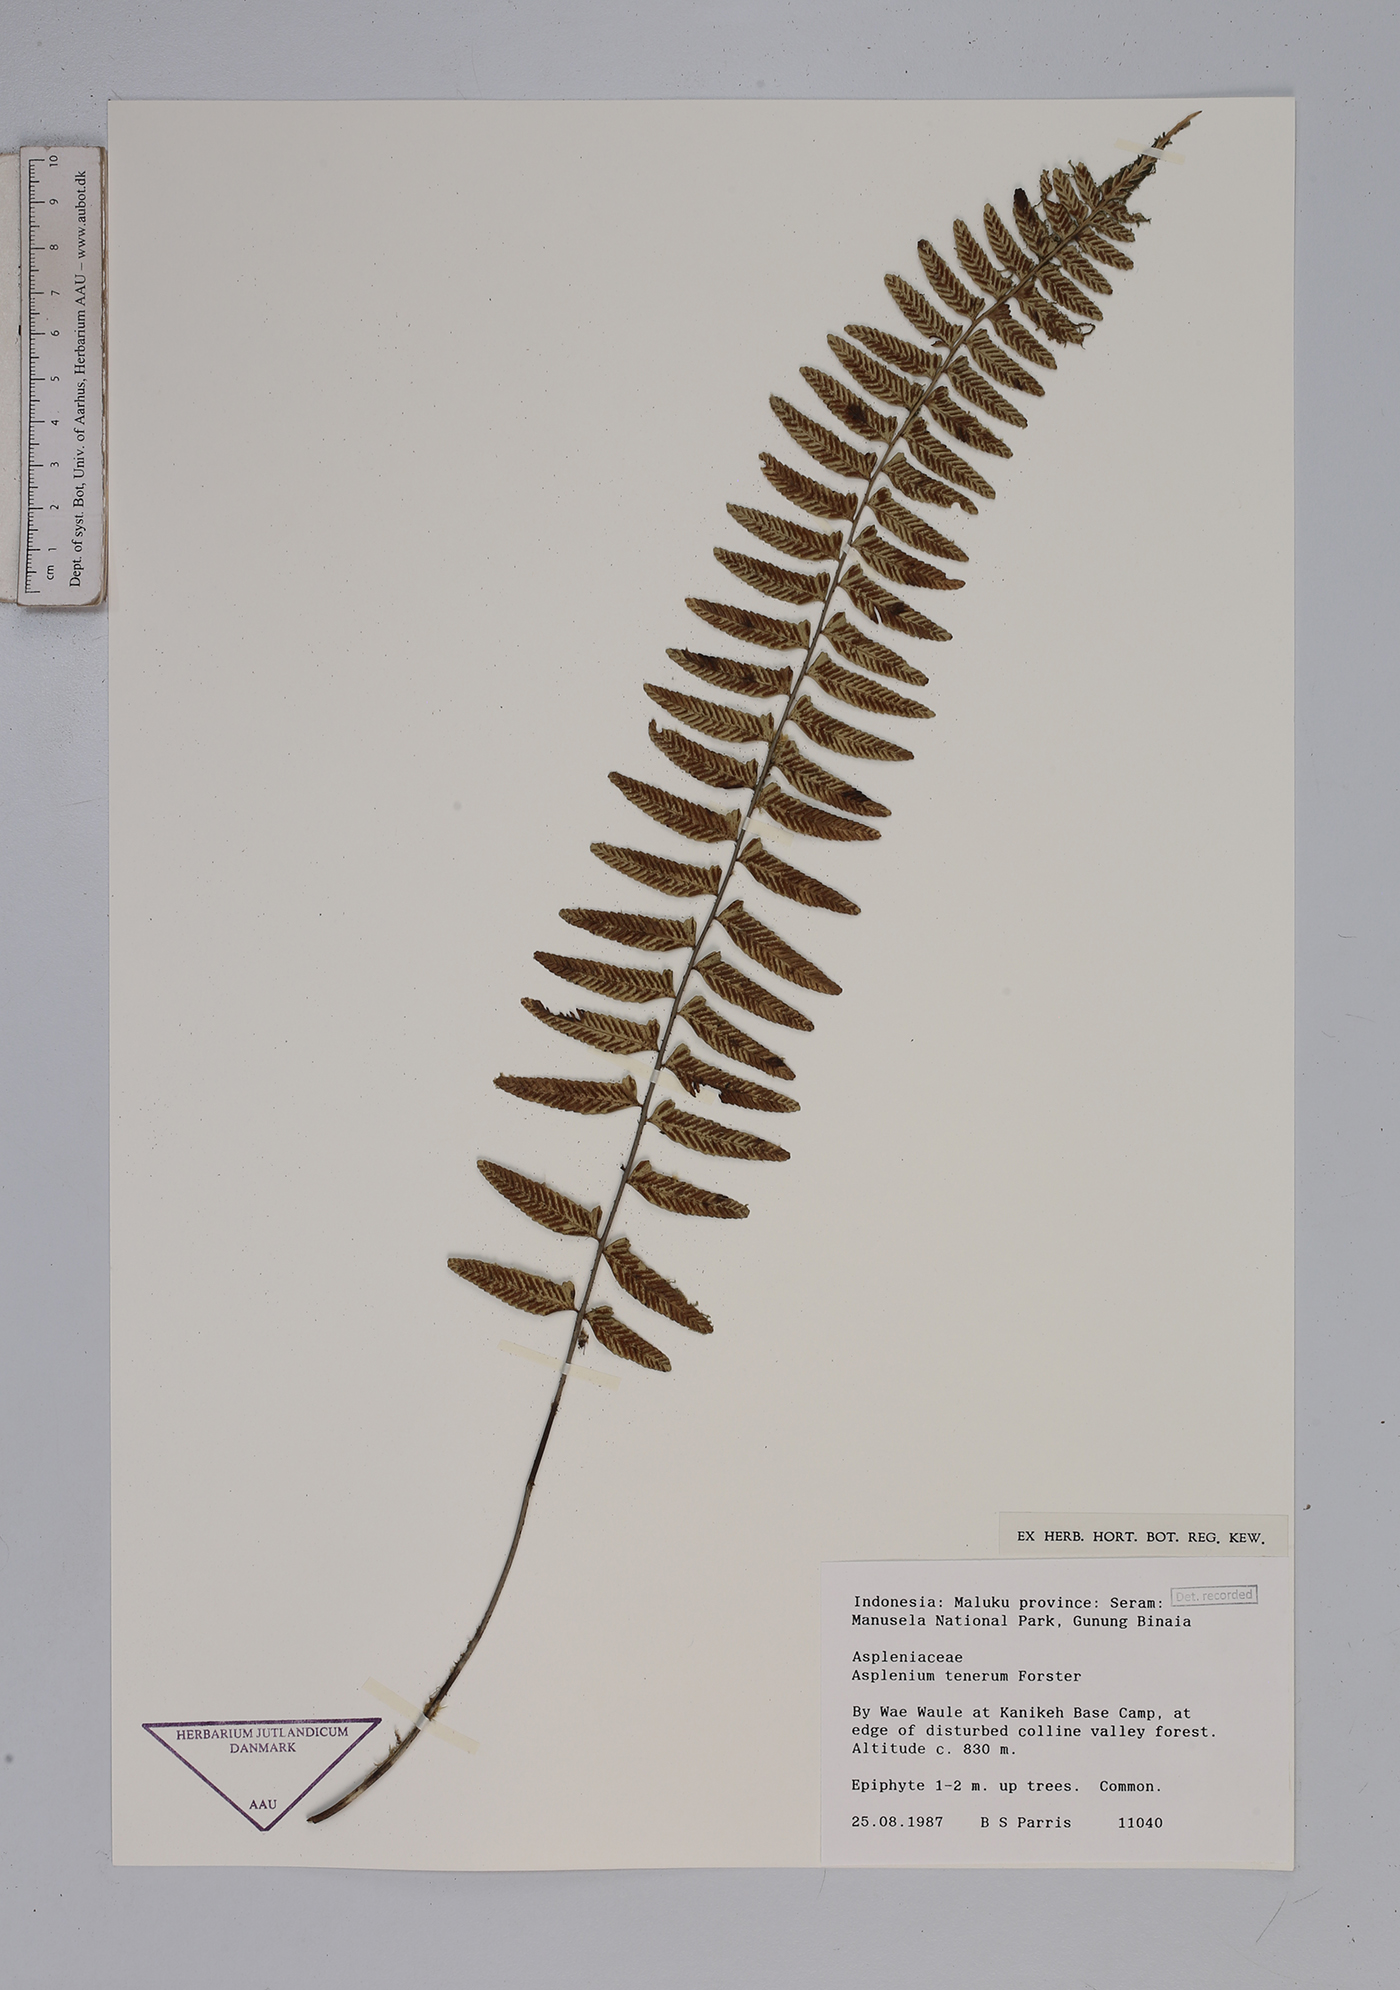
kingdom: Plantae
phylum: Tracheophyta
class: Polypodiopsida
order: Polypodiales
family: Aspleniaceae
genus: Asplenium
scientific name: Asplenium tenerum
